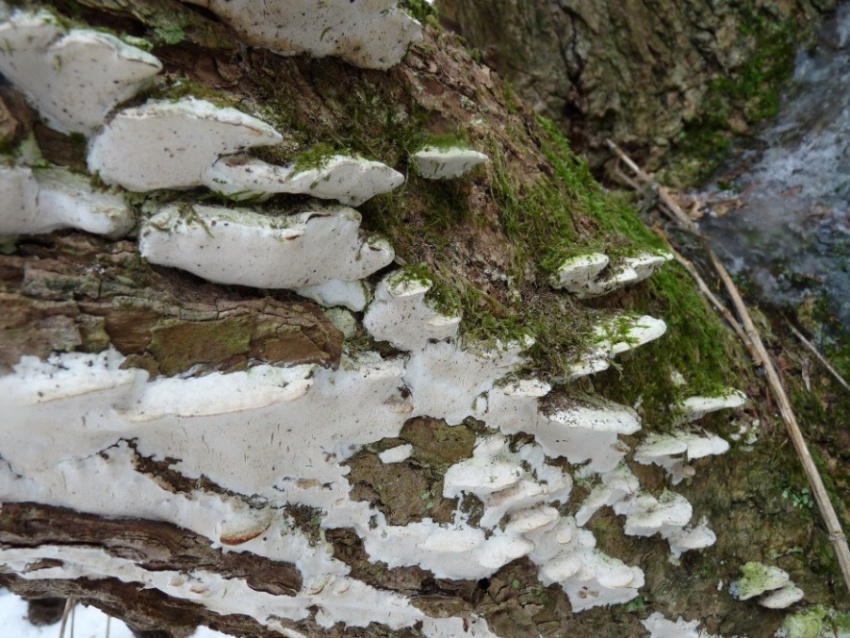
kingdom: Fungi
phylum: Basidiomycota
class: Agaricomycetes
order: Hymenochaetales
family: Oxyporaceae
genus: Oxyporus
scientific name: Oxyporus populinus
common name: sammenvokset trylleporesvamp
